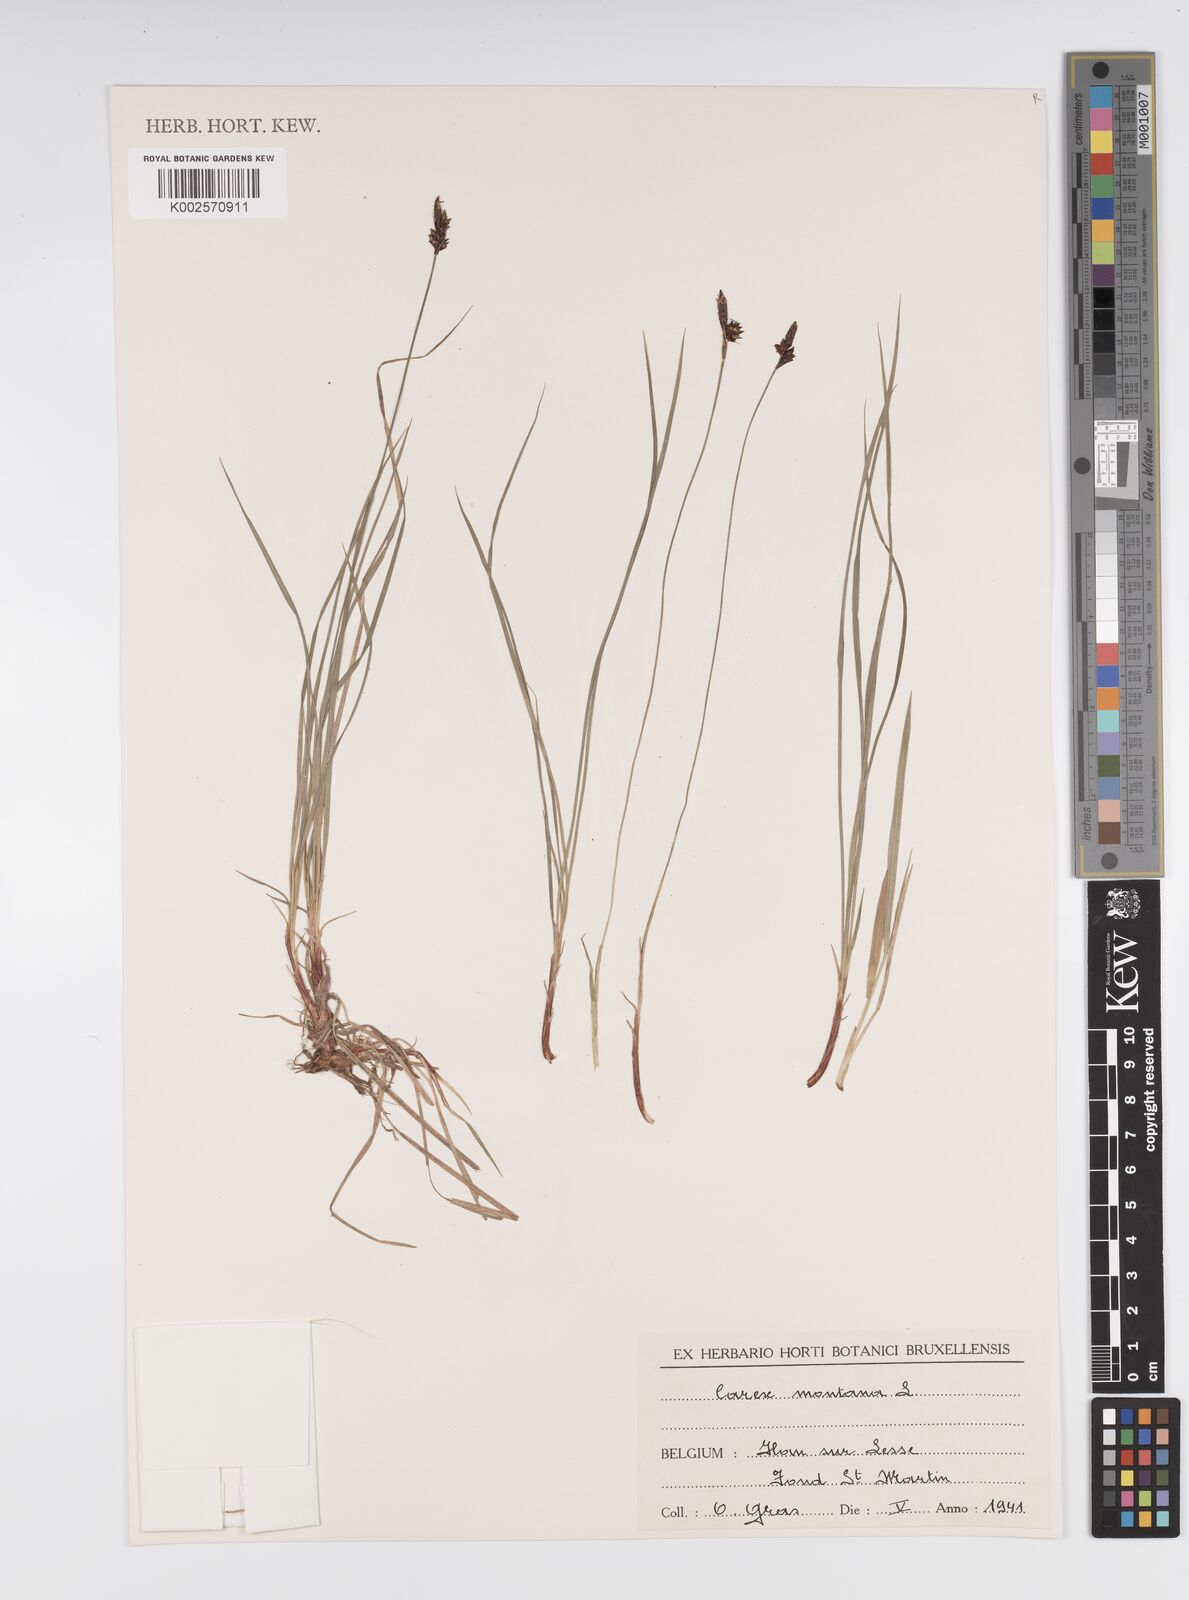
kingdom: Plantae
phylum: Tracheophyta
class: Liliopsida
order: Poales
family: Cyperaceae
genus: Carex
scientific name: Carex montana
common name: Soft-leaved sedge
